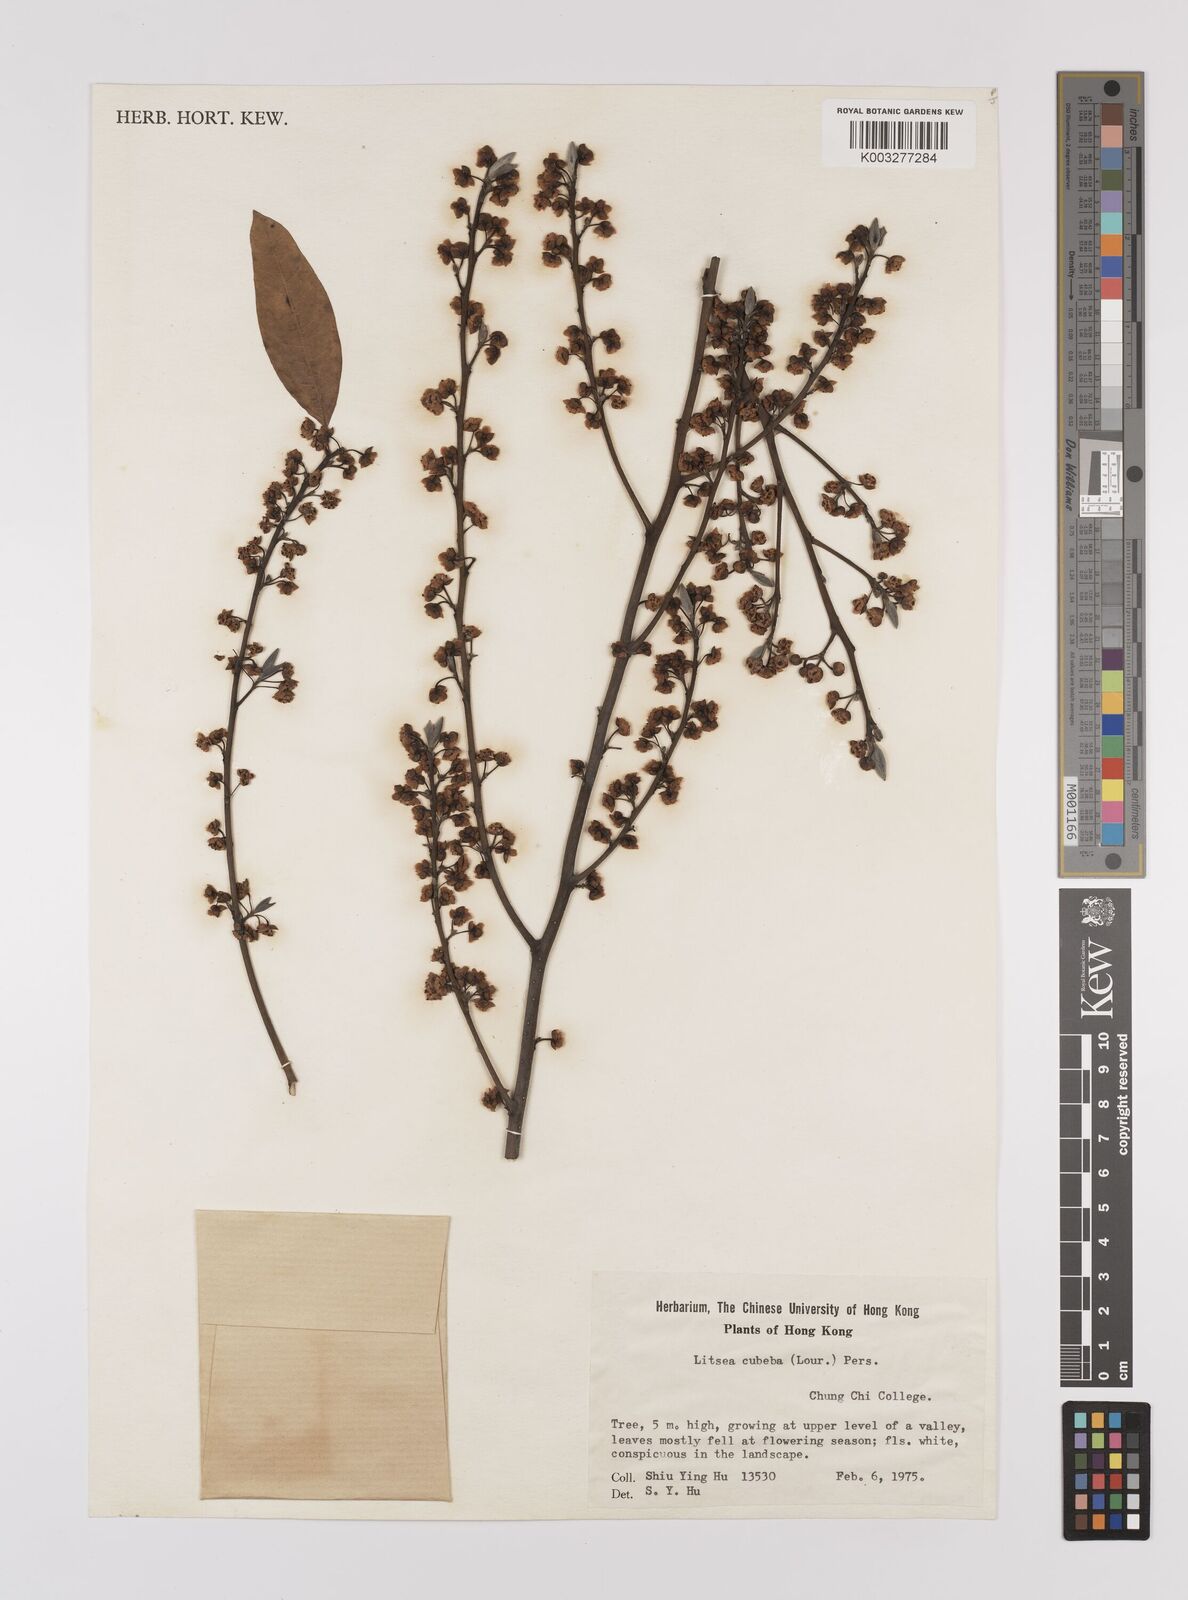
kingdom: Plantae
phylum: Tracheophyta
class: Magnoliopsida
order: Laurales
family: Lauraceae
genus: Litsea
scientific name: Litsea cubeba
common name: Mountain-pepper
